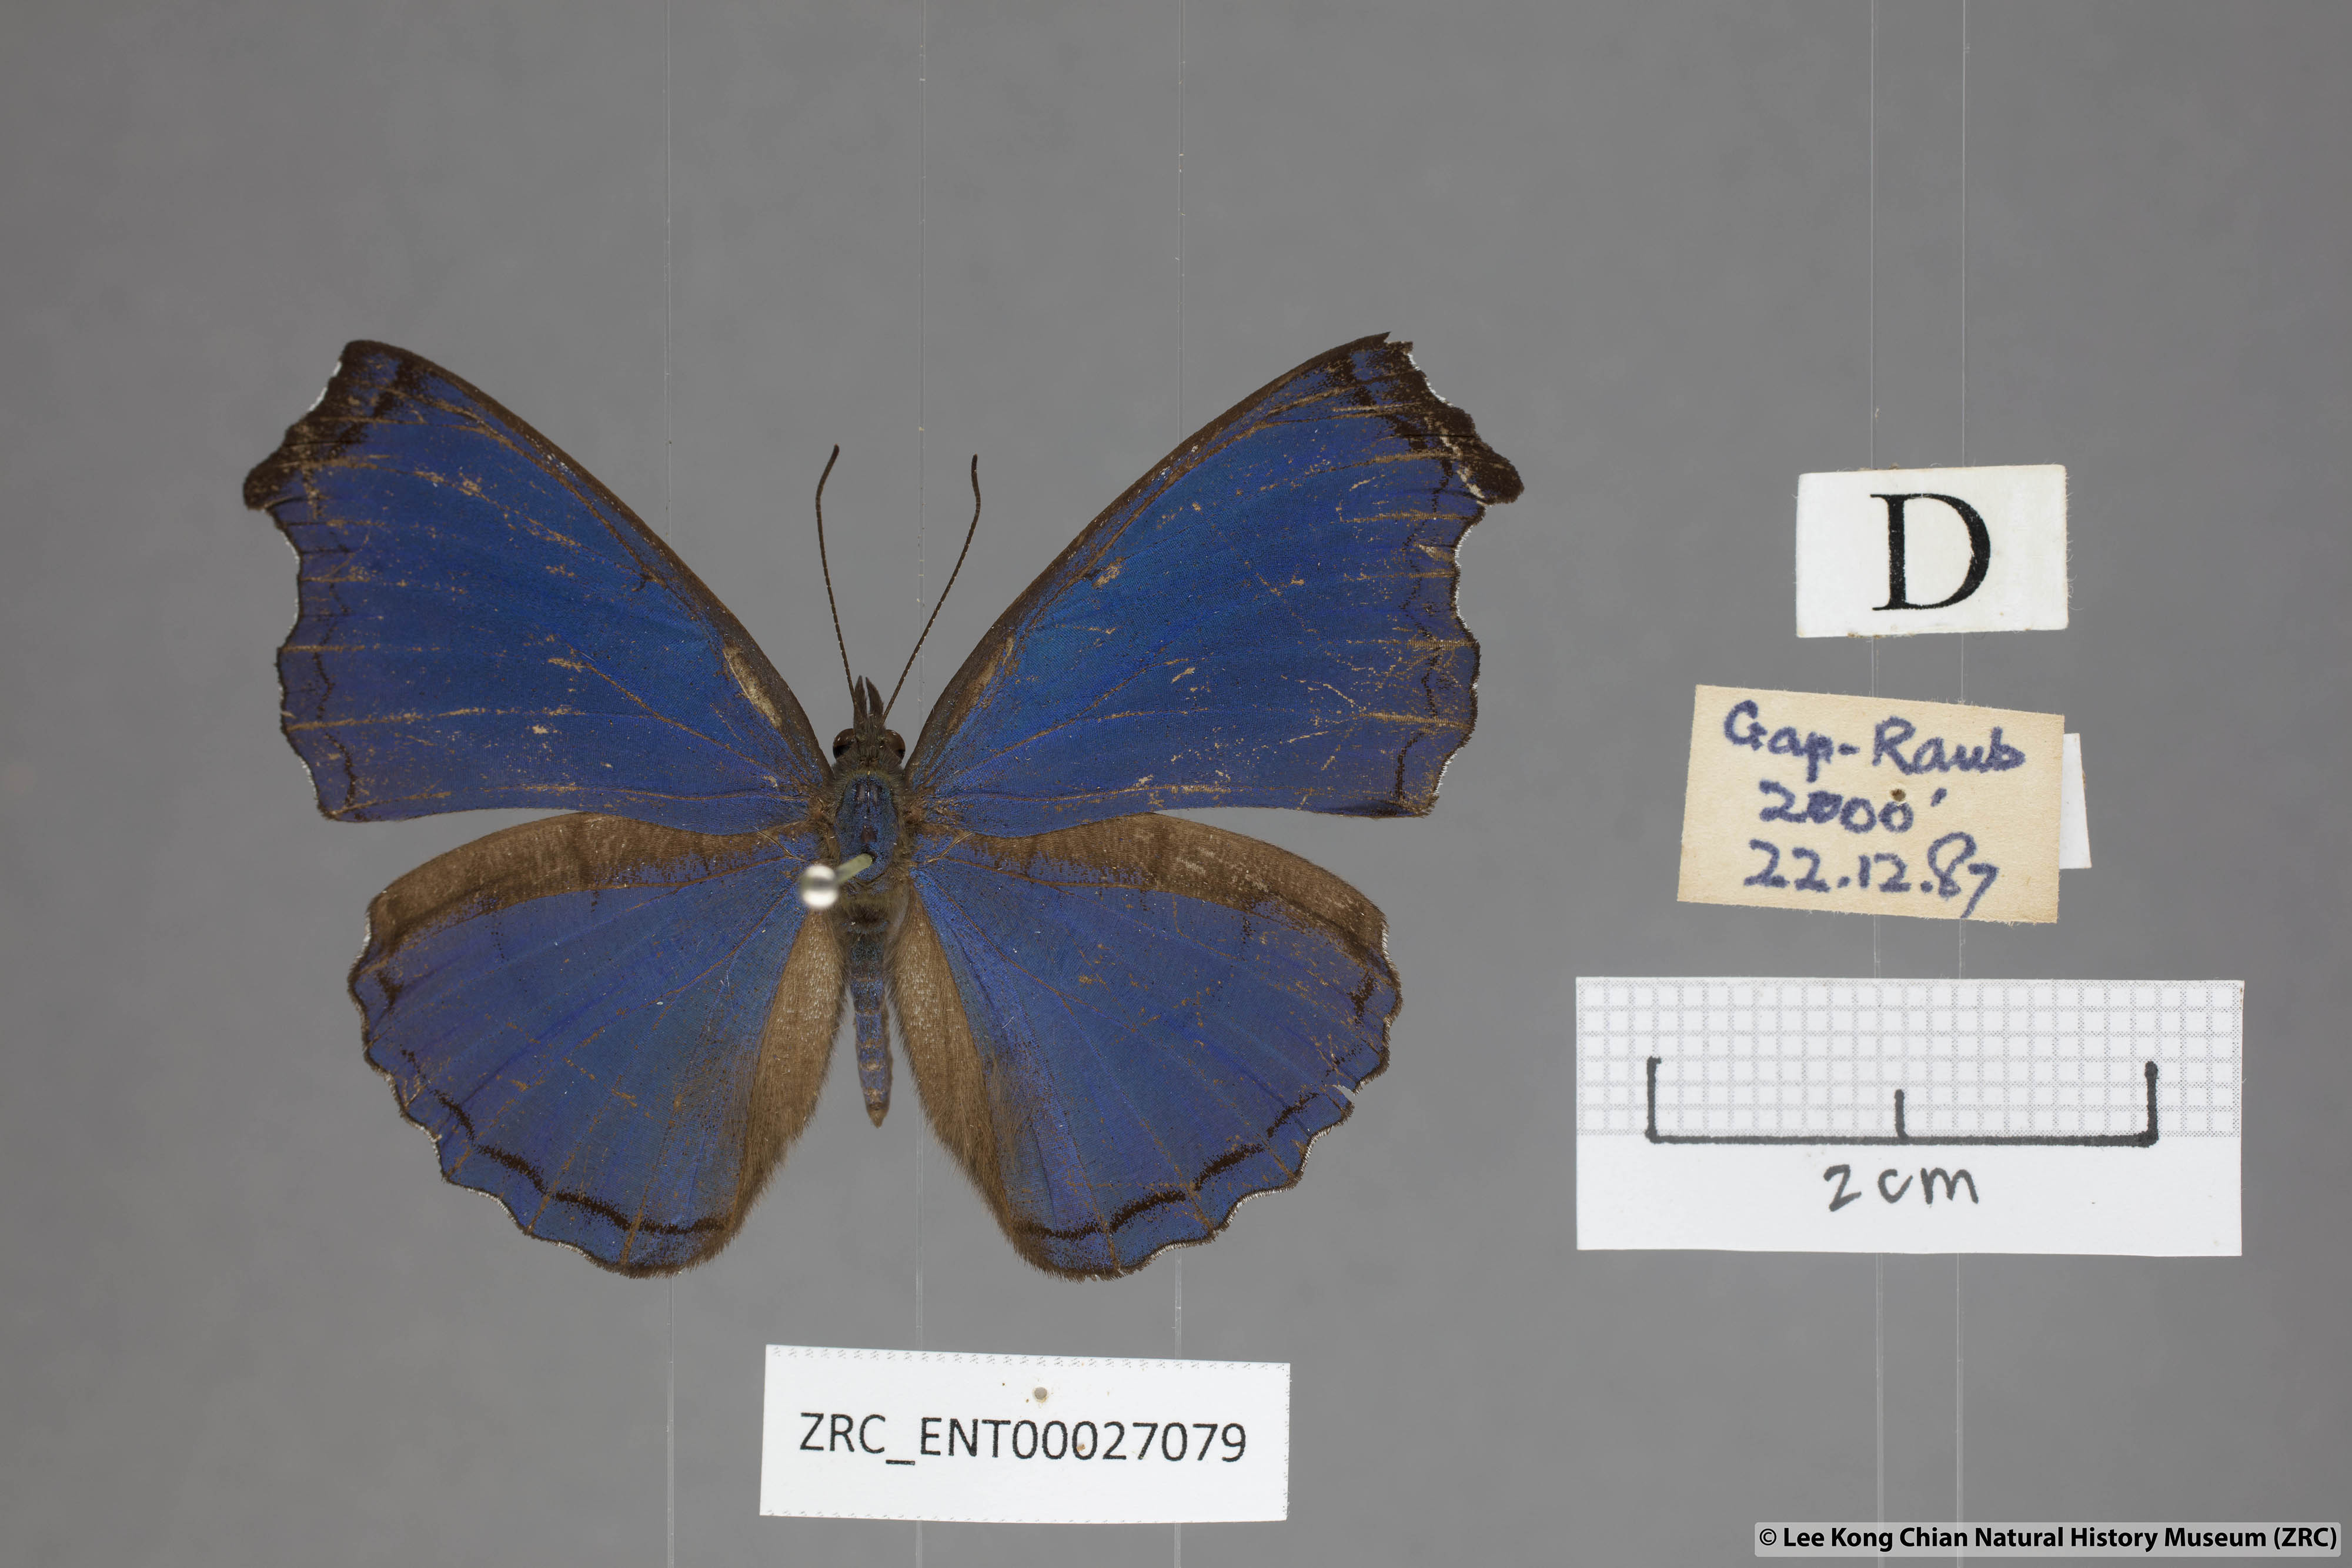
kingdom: Animalia
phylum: Arthropoda
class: Insecta
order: Lepidoptera
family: Nymphalidae
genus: Laringa
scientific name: Laringa castelnaui
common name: Blue dandy
